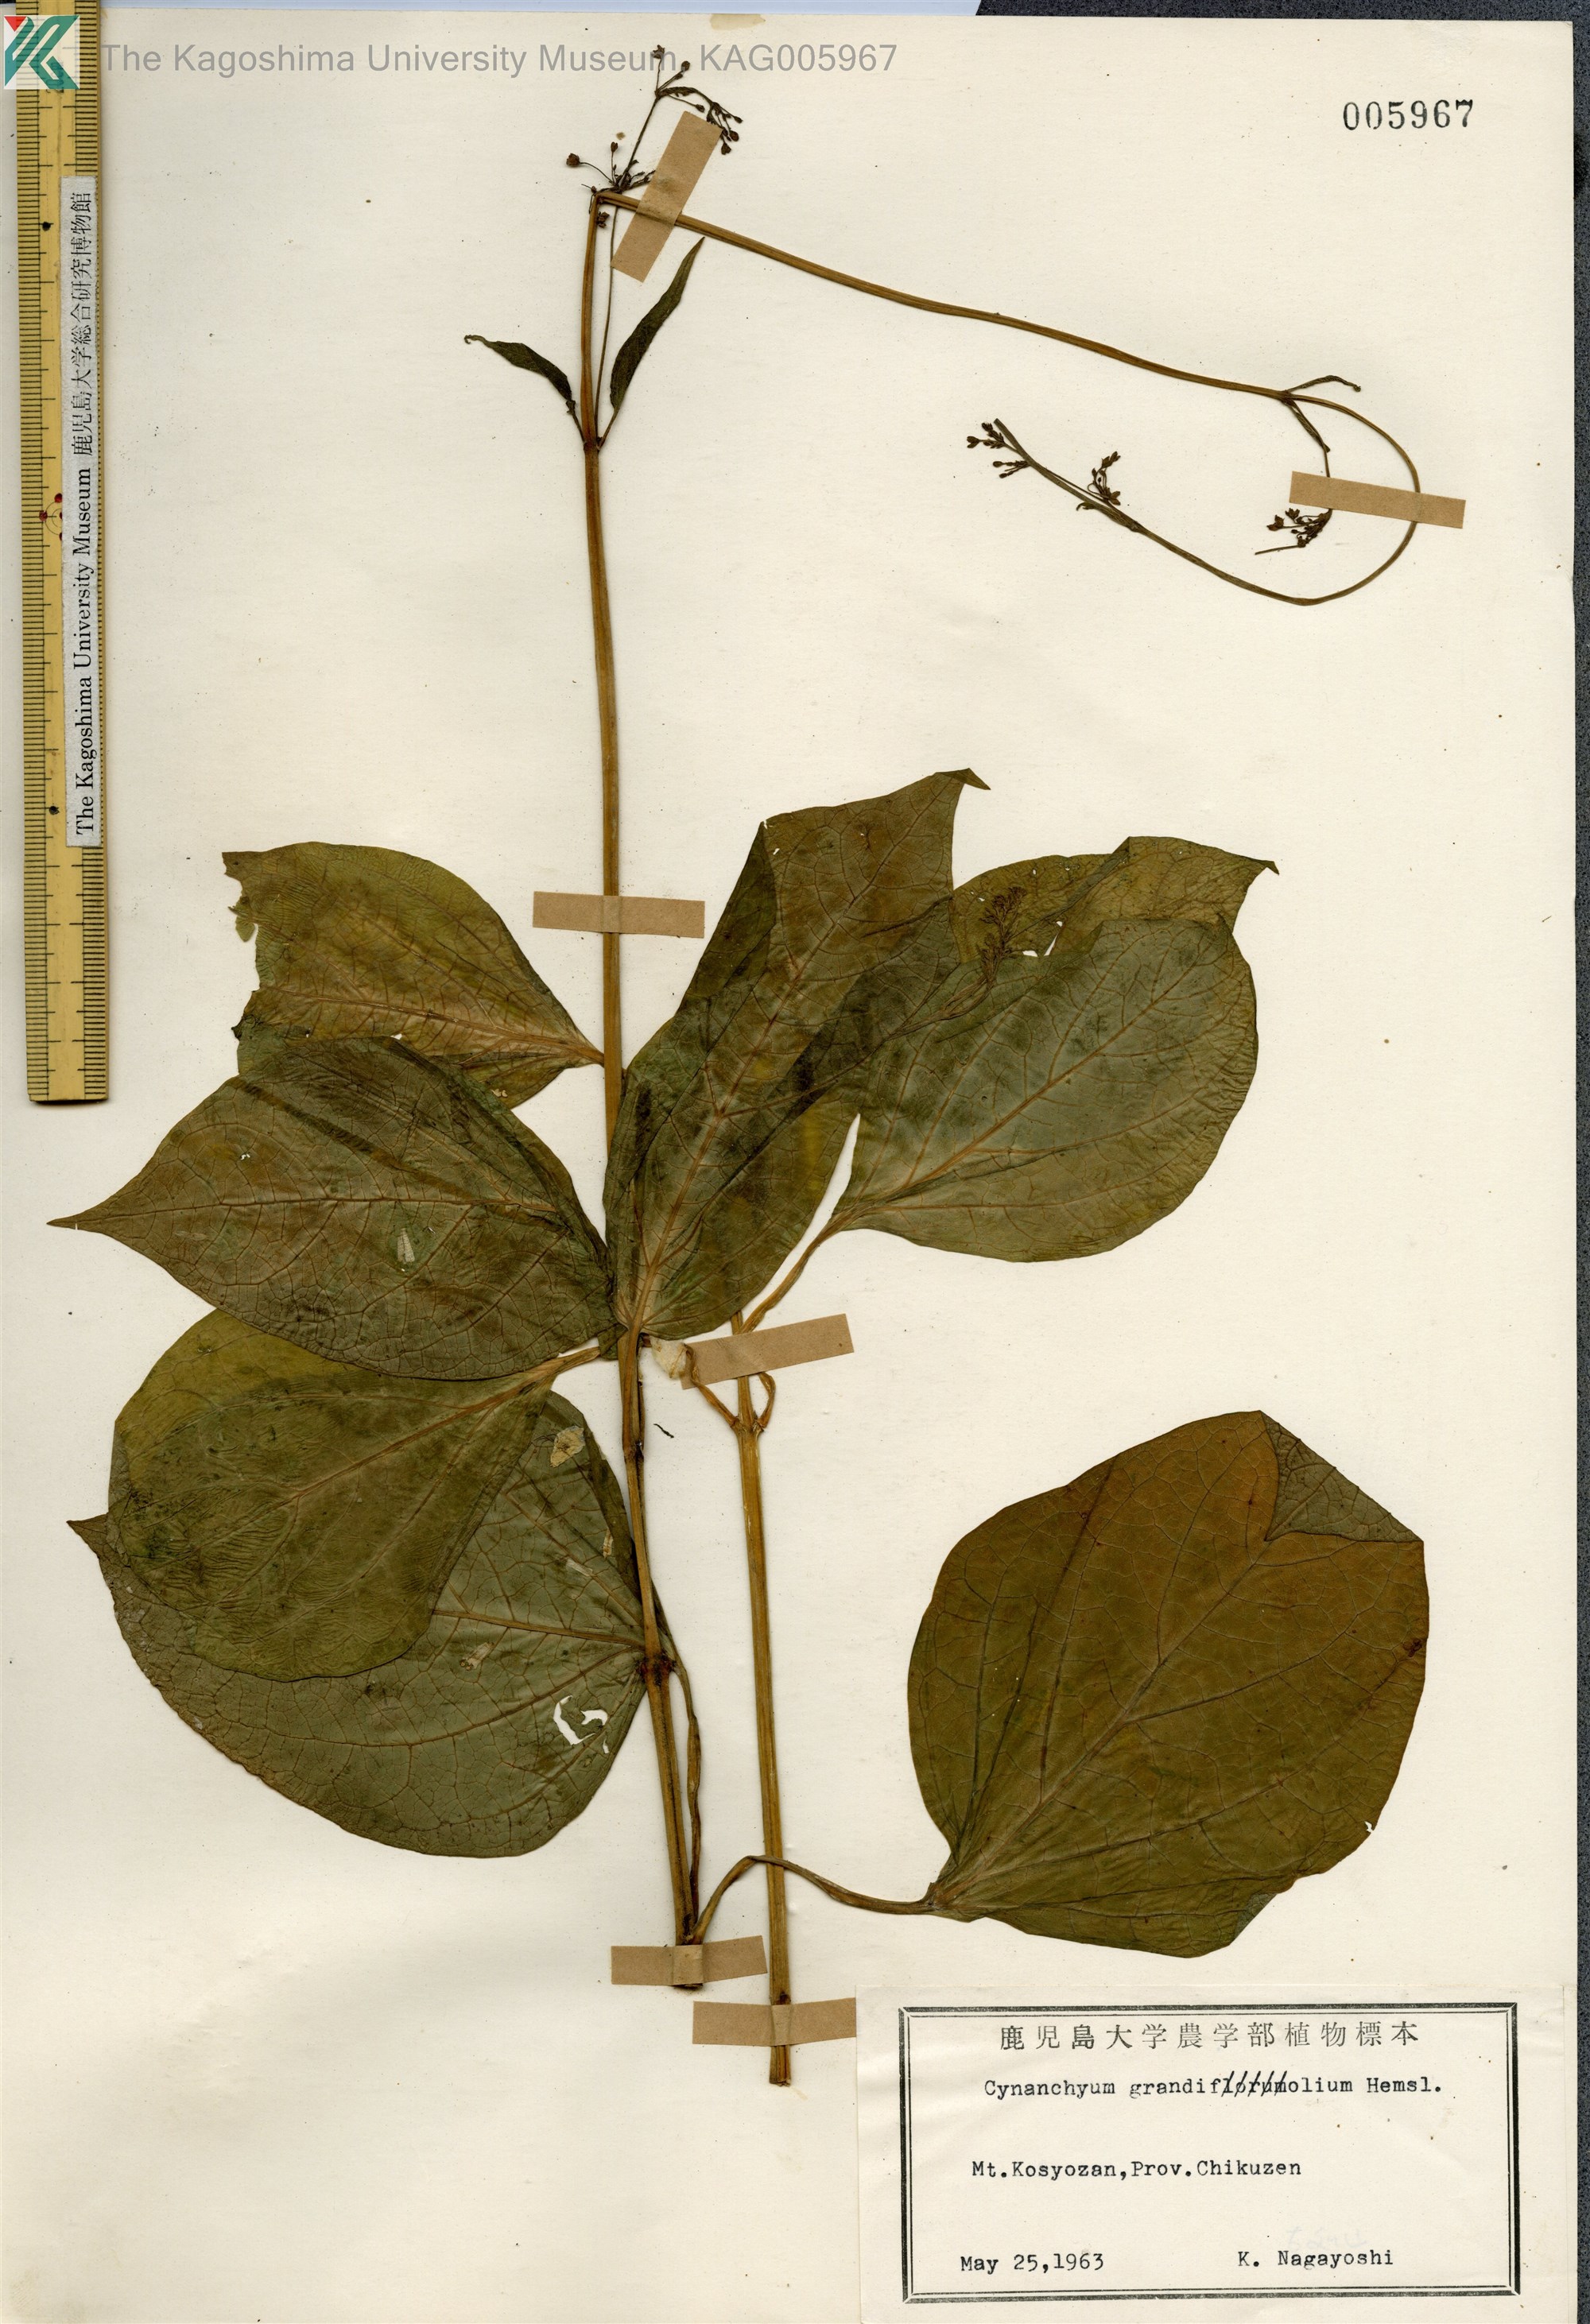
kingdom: Plantae
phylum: Tracheophyta
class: Magnoliopsida
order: Gentianales
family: Apocynaceae
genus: Vincetoxicum
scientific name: Vincetoxicum macrophyllum
